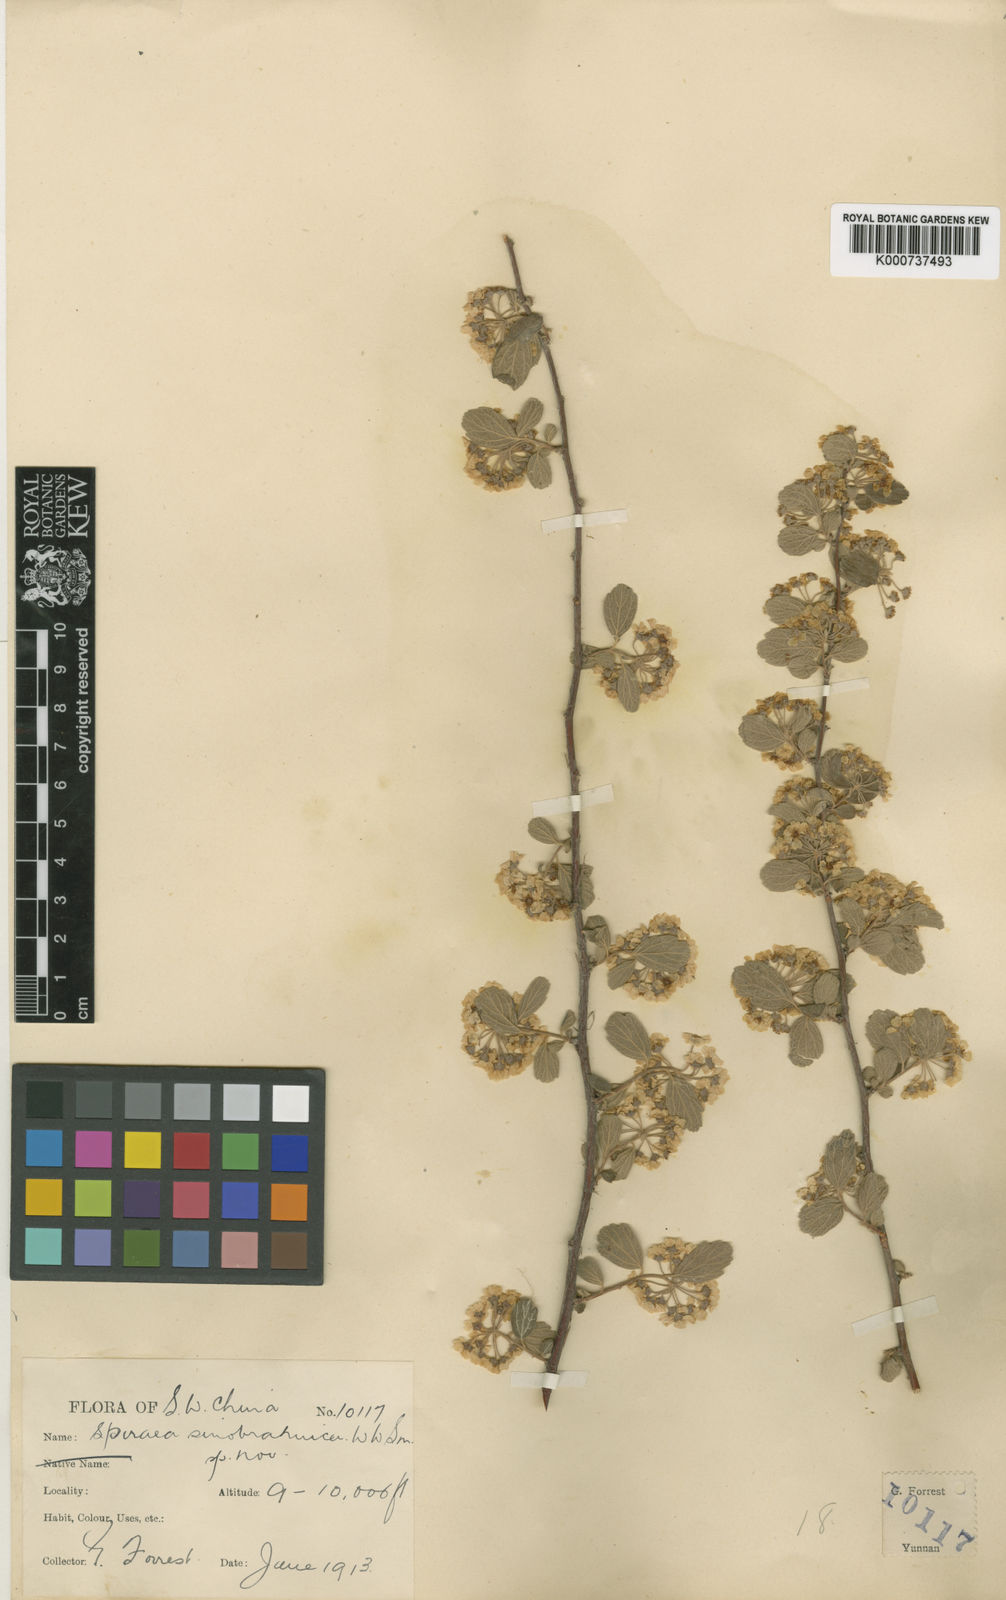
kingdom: Plantae
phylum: Tracheophyta
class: Magnoliopsida
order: Rosales
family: Rosaceae
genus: Spiraea
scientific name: Spiraea yunnanensis
